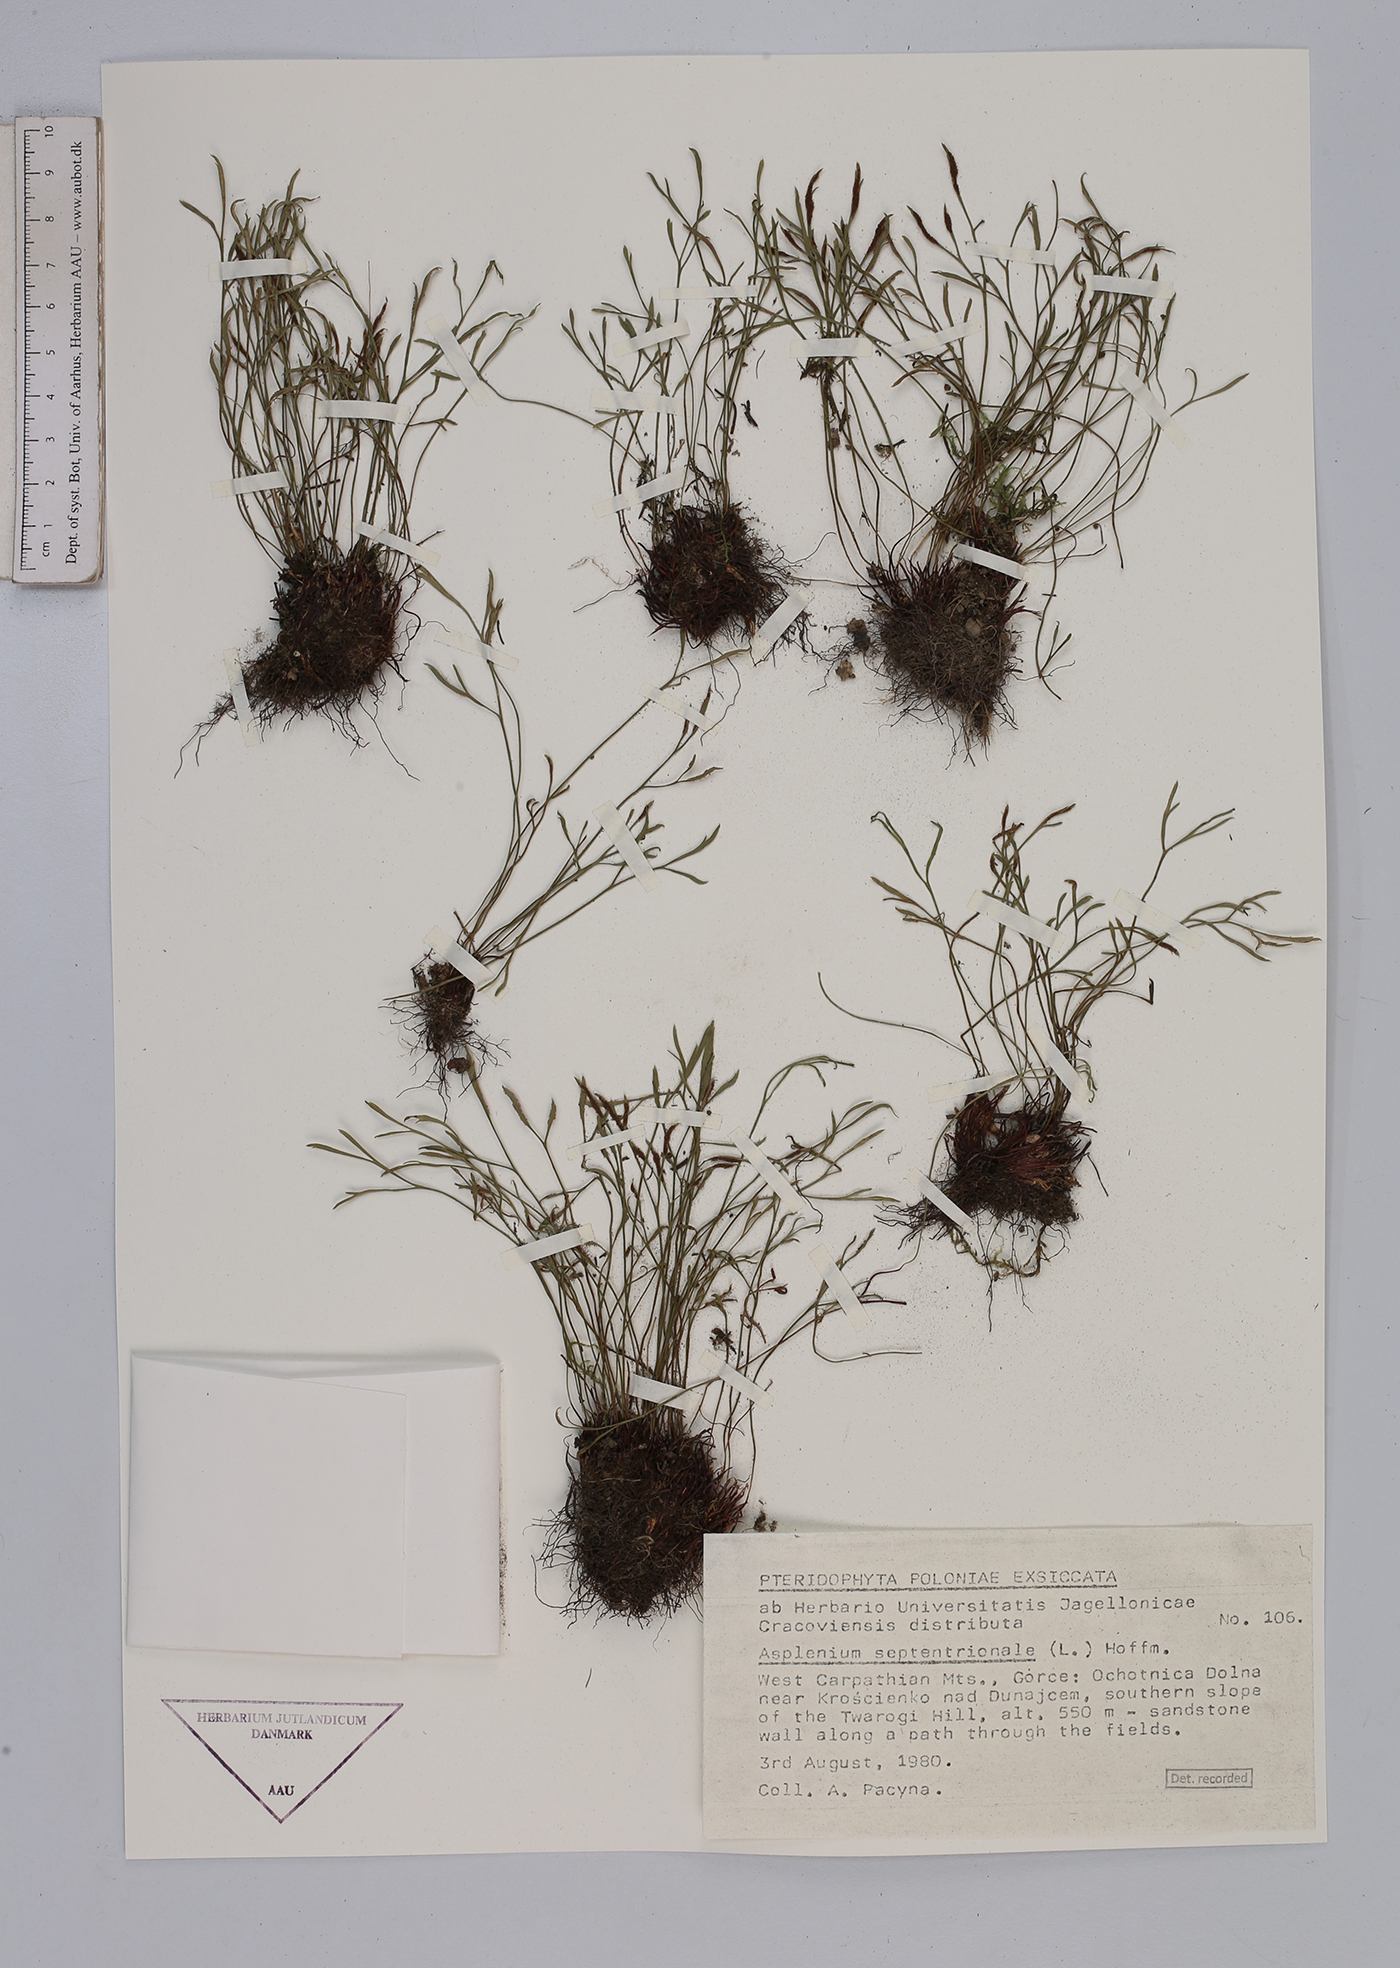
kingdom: Plantae
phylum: Tracheophyta
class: Polypodiopsida
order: Polypodiales
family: Aspleniaceae
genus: Asplenium
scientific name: Asplenium septentrionale
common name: Forked spleenwort
